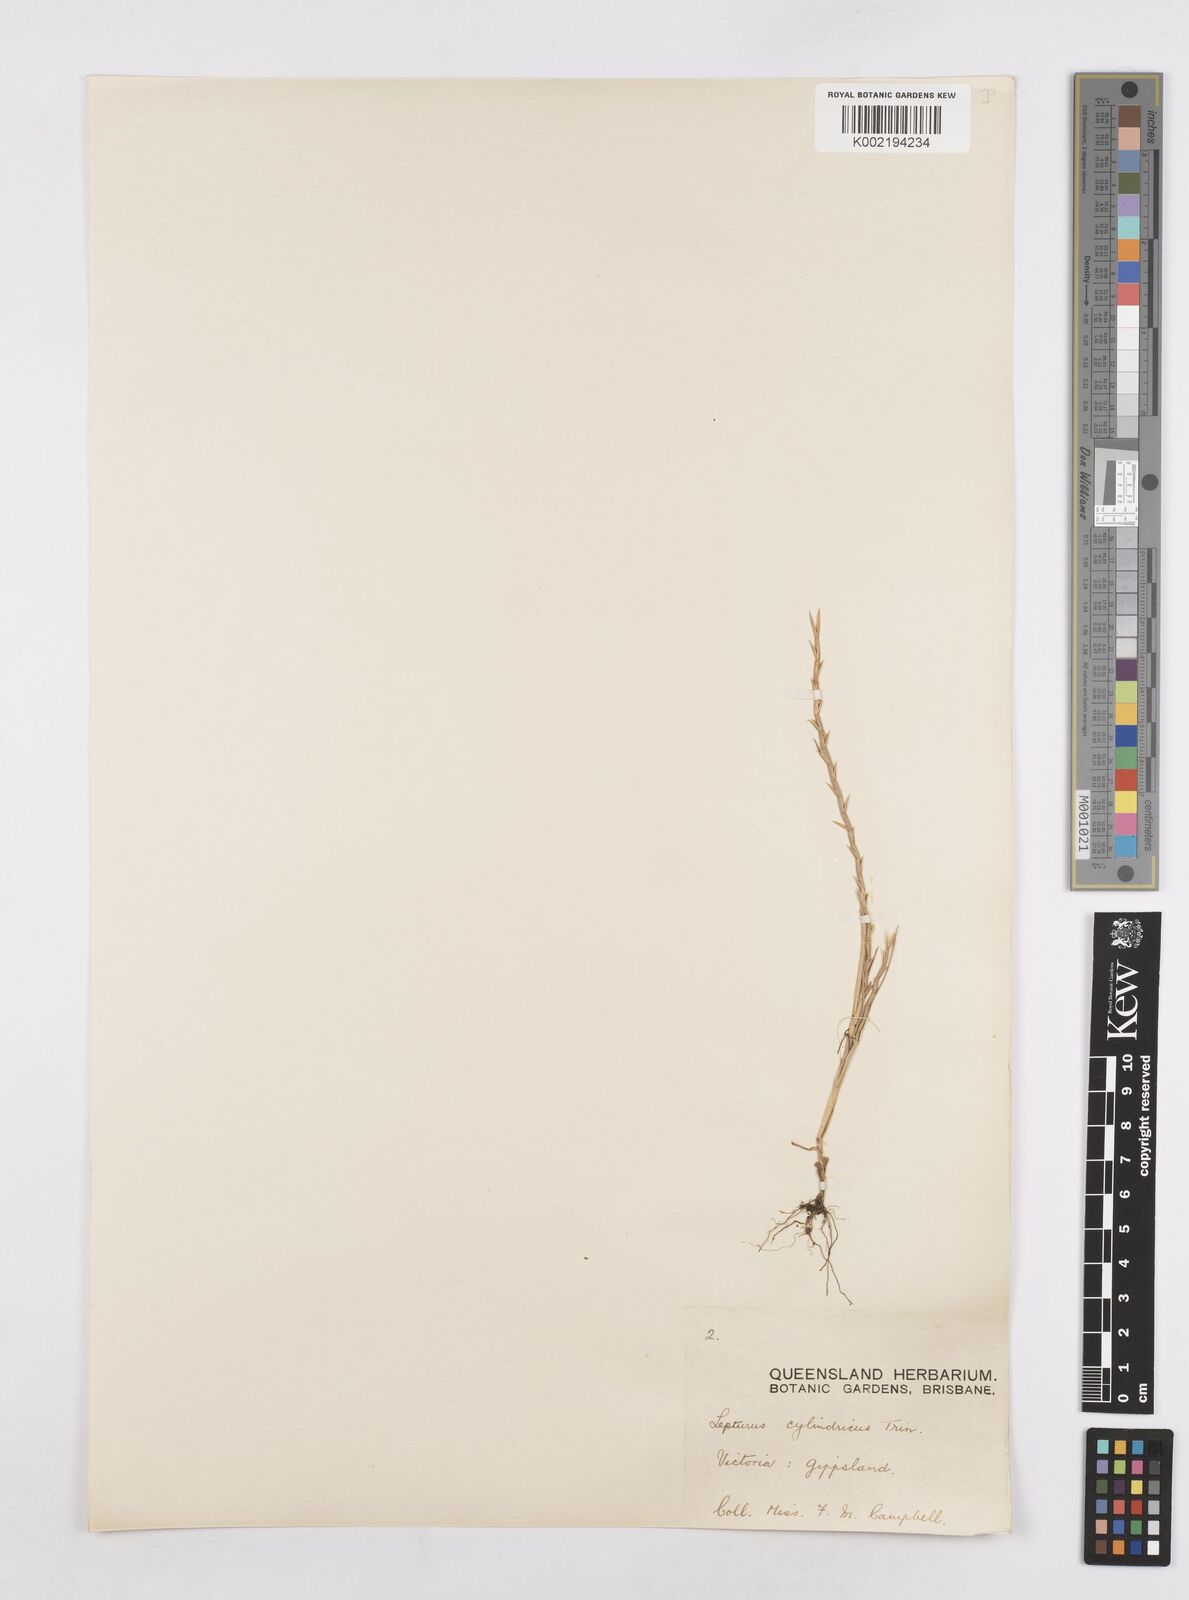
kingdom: Plantae
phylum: Tracheophyta
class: Liliopsida
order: Poales
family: Poaceae
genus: Parapholis
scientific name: Parapholis cylindrica
